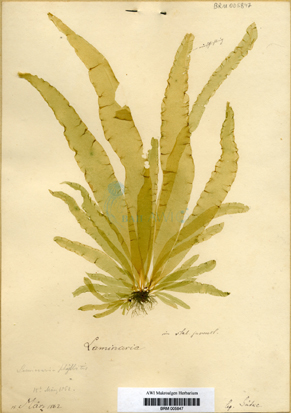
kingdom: Chromista
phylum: Ochrophyta
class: Phaeophyceae
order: Laminariales
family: Laminariaceae
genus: Laminaria
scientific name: Laminaria
